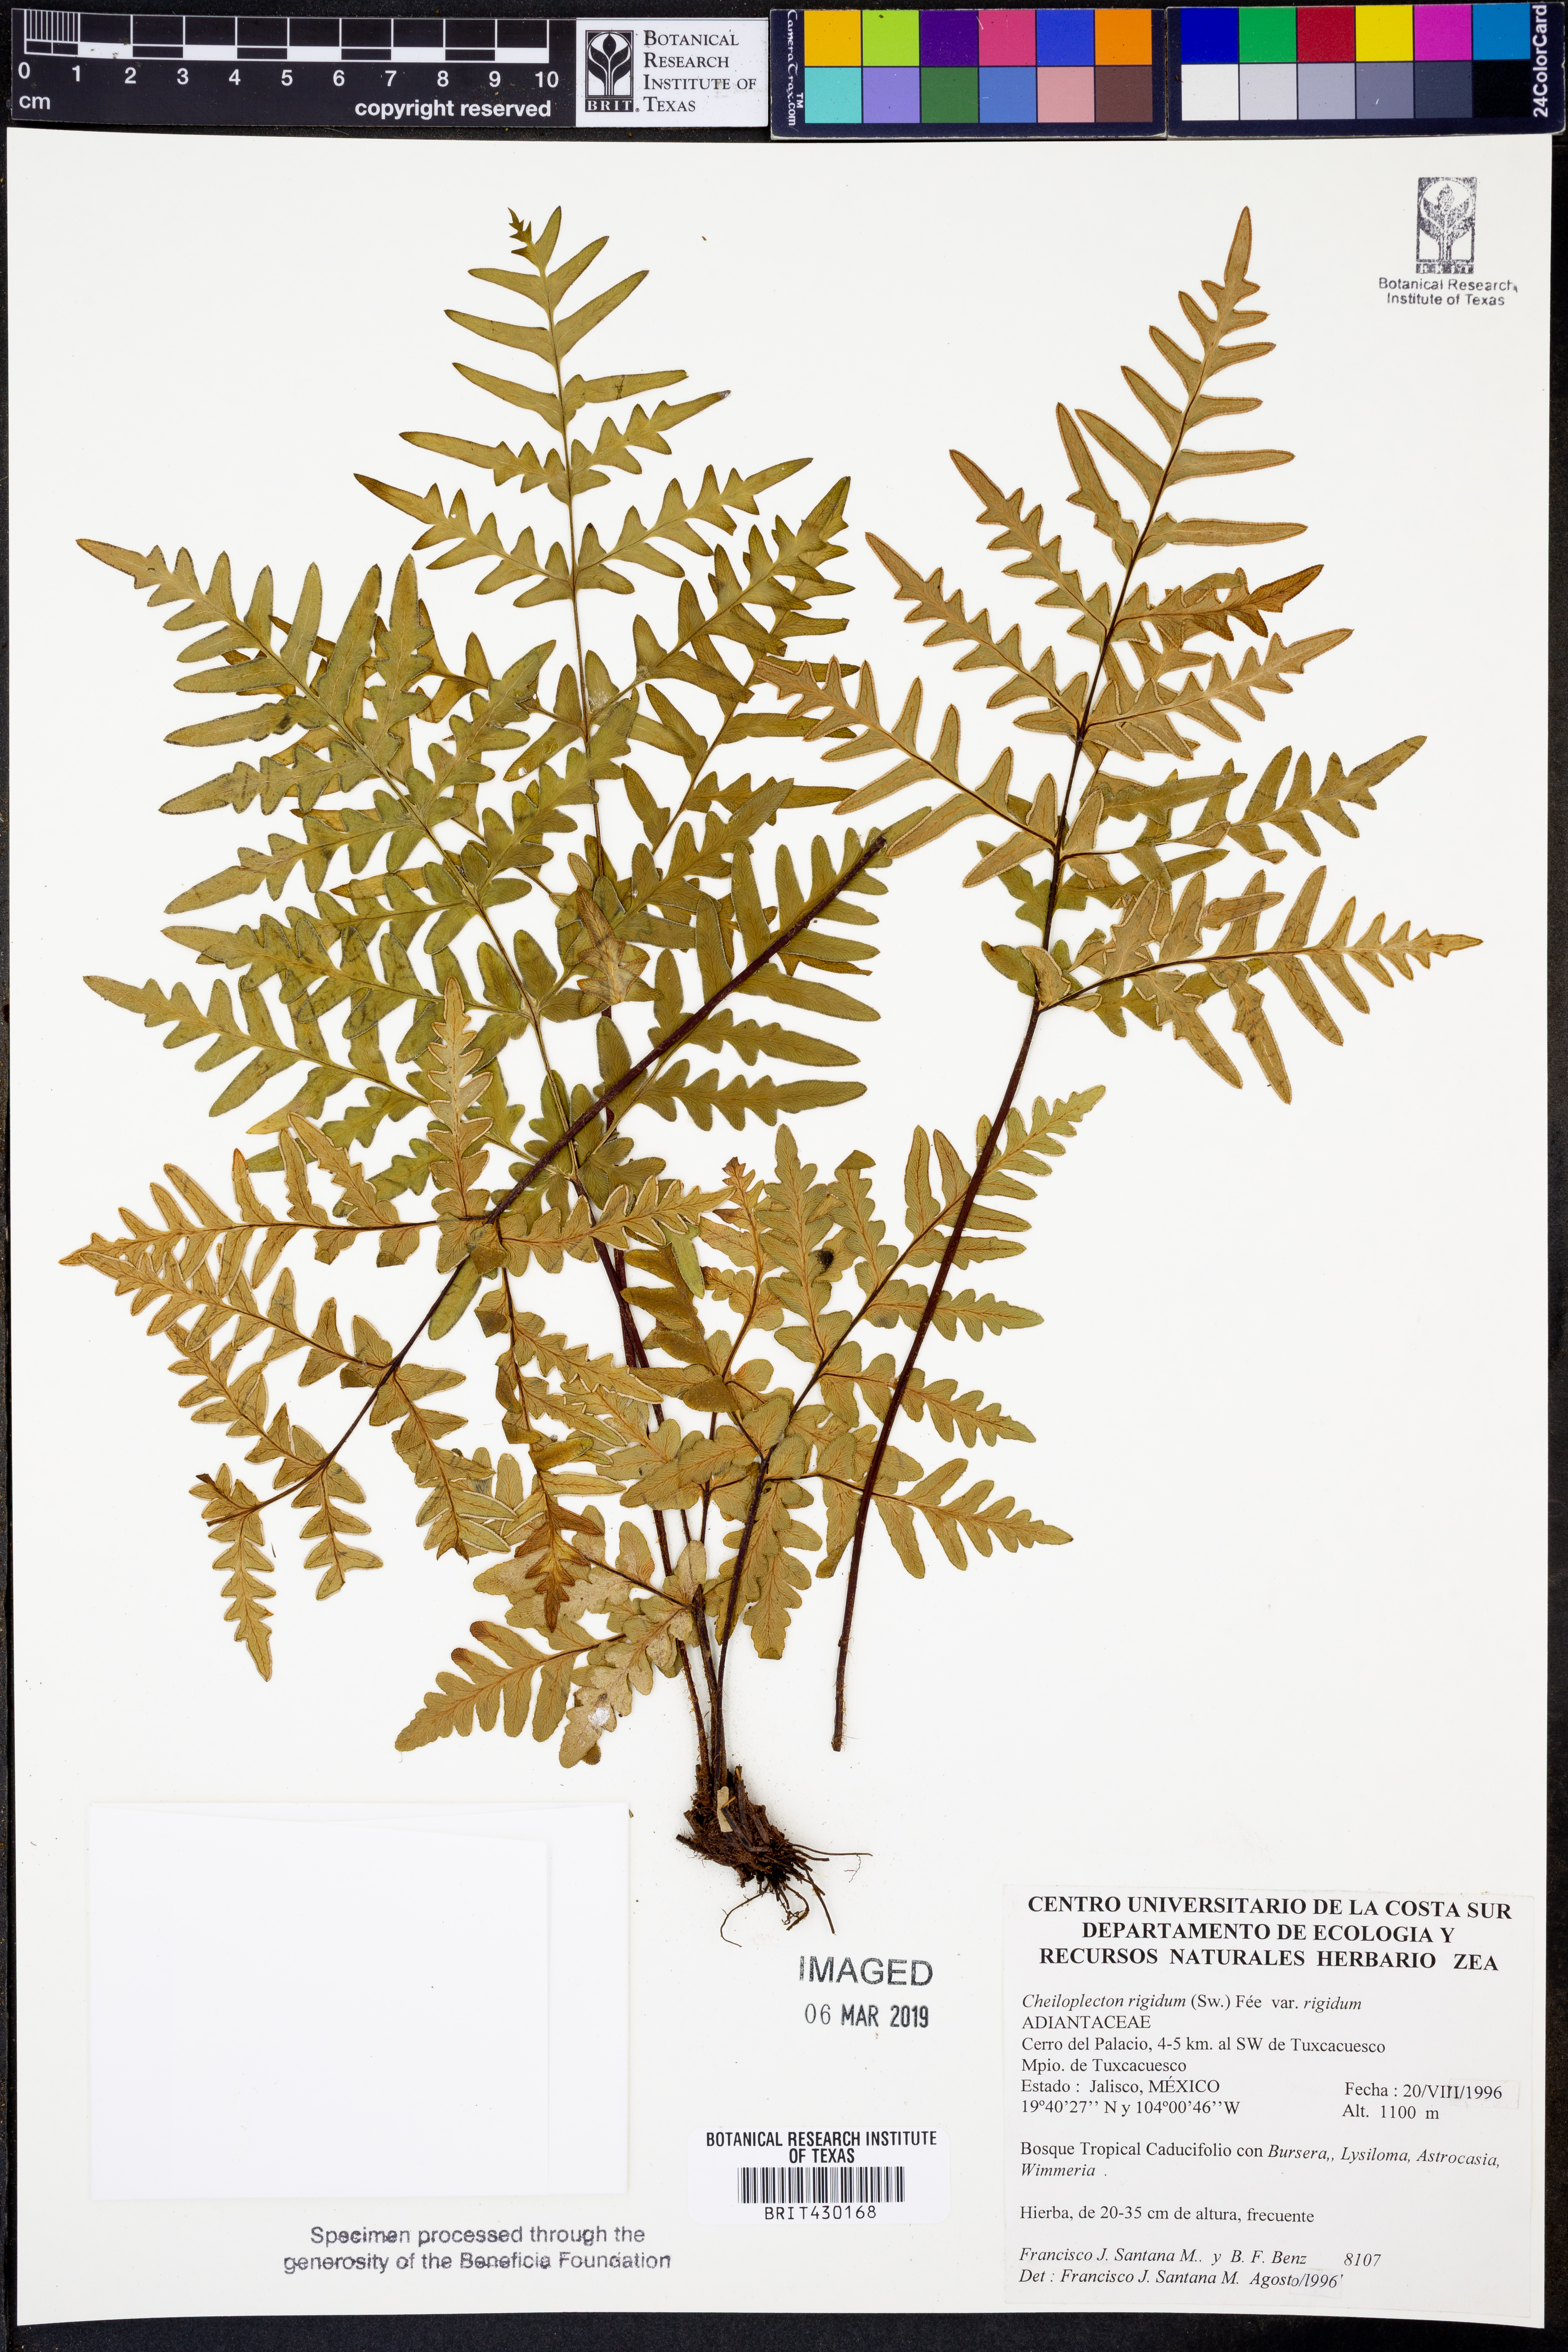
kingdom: Plantae
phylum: Tracheophyta
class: Polypodiopsida
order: Polypodiales
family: Pteridaceae
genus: Cheiloplecton
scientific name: Cheiloplecton rigidum
